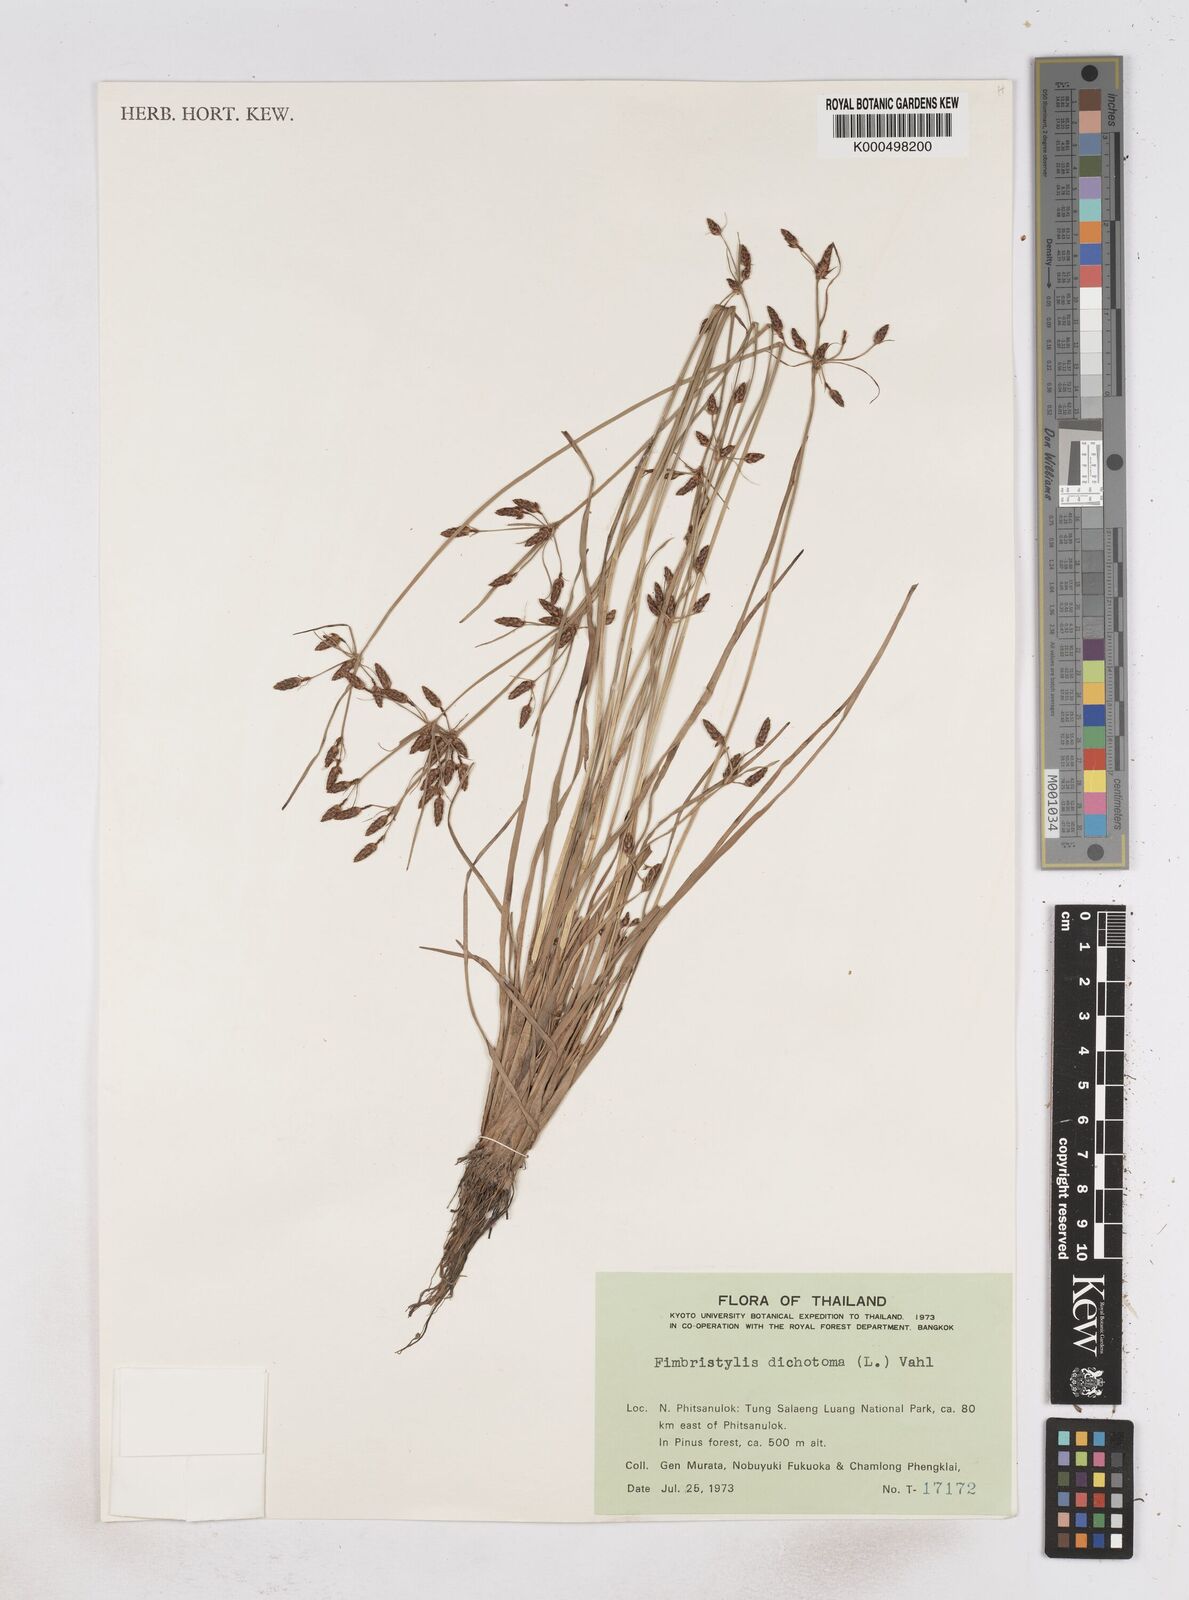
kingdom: Plantae
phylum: Tracheophyta
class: Liliopsida
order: Poales
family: Cyperaceae
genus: Fimbristylis
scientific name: Fimbristylis dichotoma
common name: Forked fimbry
